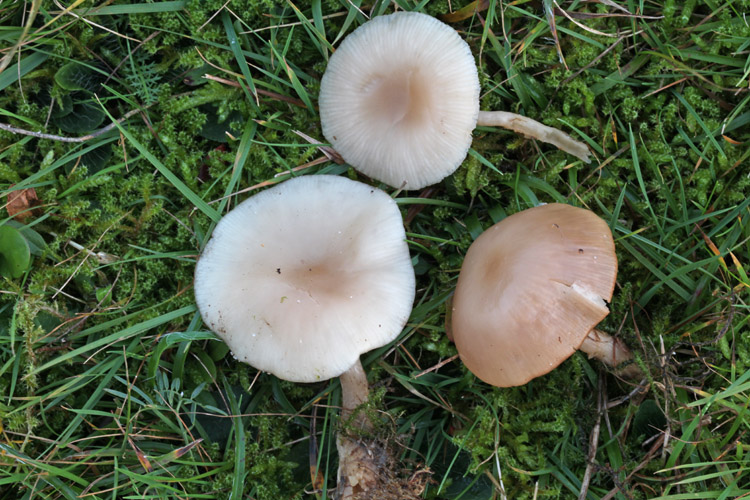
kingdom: Fungi
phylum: Basidiomycota
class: Agaricomycetes
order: Agaricales
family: Tricholomataceae
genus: Clitocybe
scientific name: Clitocybe fragrans
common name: vellugtende tragthat
